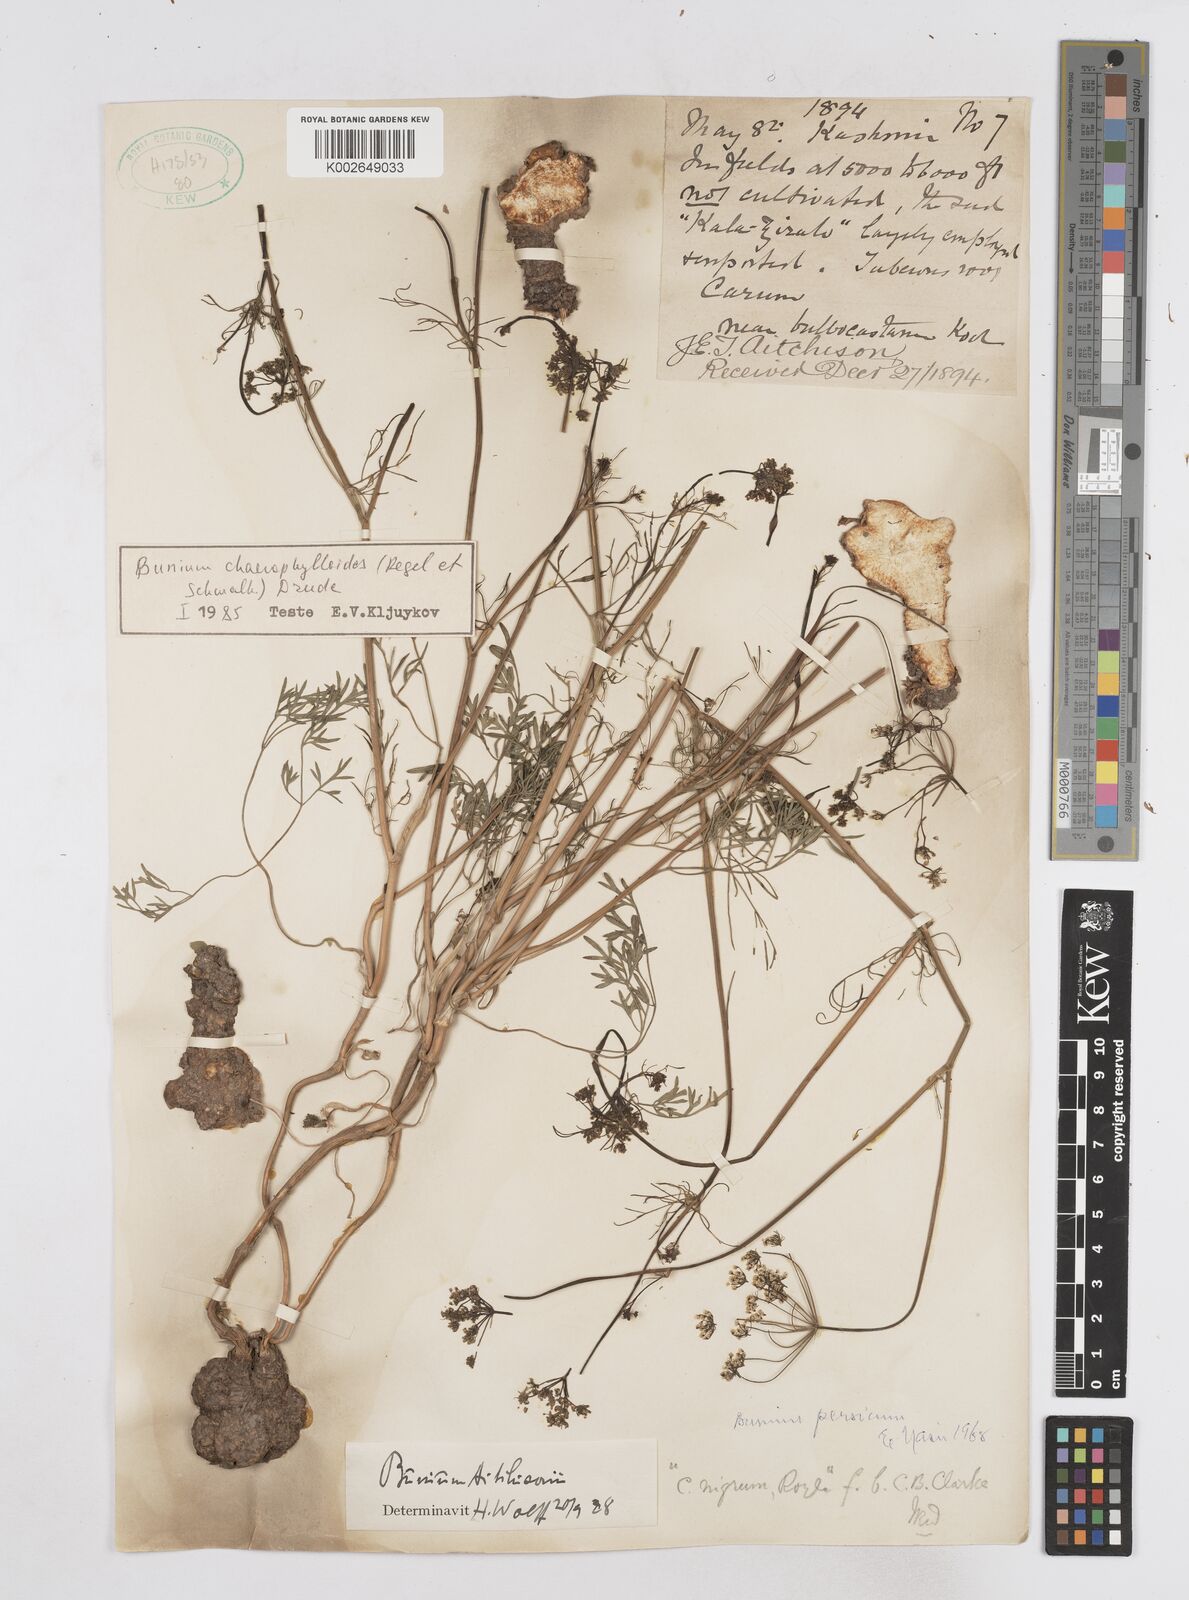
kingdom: Plantae
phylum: Tracheophyta
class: Magnoliopsida
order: Apiales
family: Apiaceae
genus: Elwendia
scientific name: Elwendia chaerophylloides
